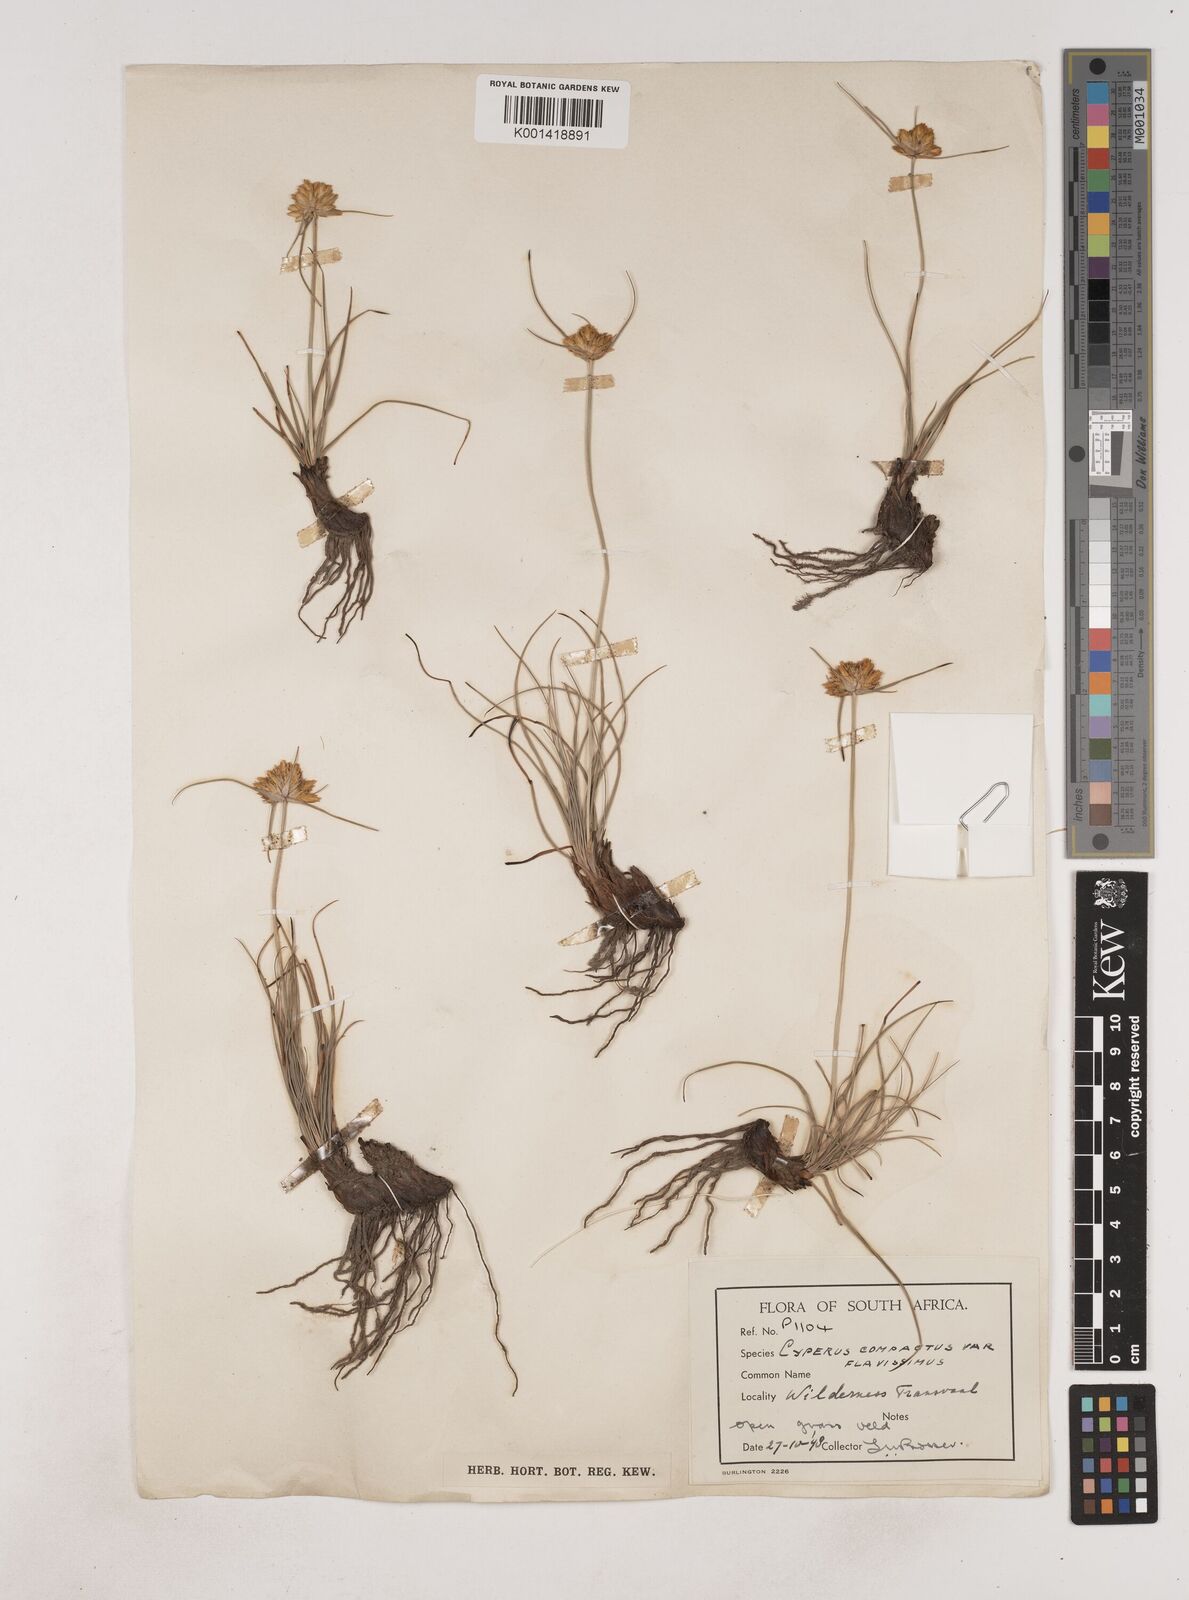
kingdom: Plantae
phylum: Tracheophyta
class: Liliopsida
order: Poales
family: Cyperaceae
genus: Cyperus
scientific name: Cyperus sphaerocephalus
